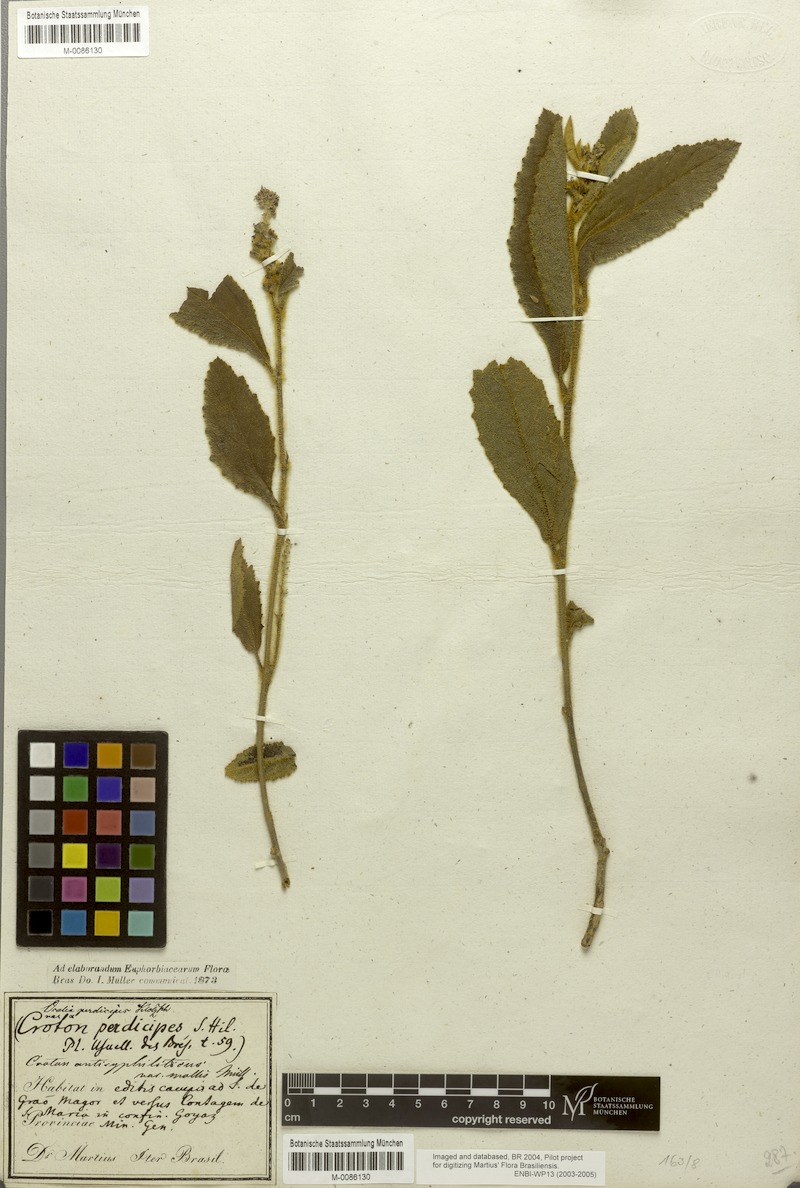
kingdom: Plantae
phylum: Tracheophyta
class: Magnoliopsida
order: Malpighiales
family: Euphorbiaceae
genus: Croton
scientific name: Croton antisyphiliticus
